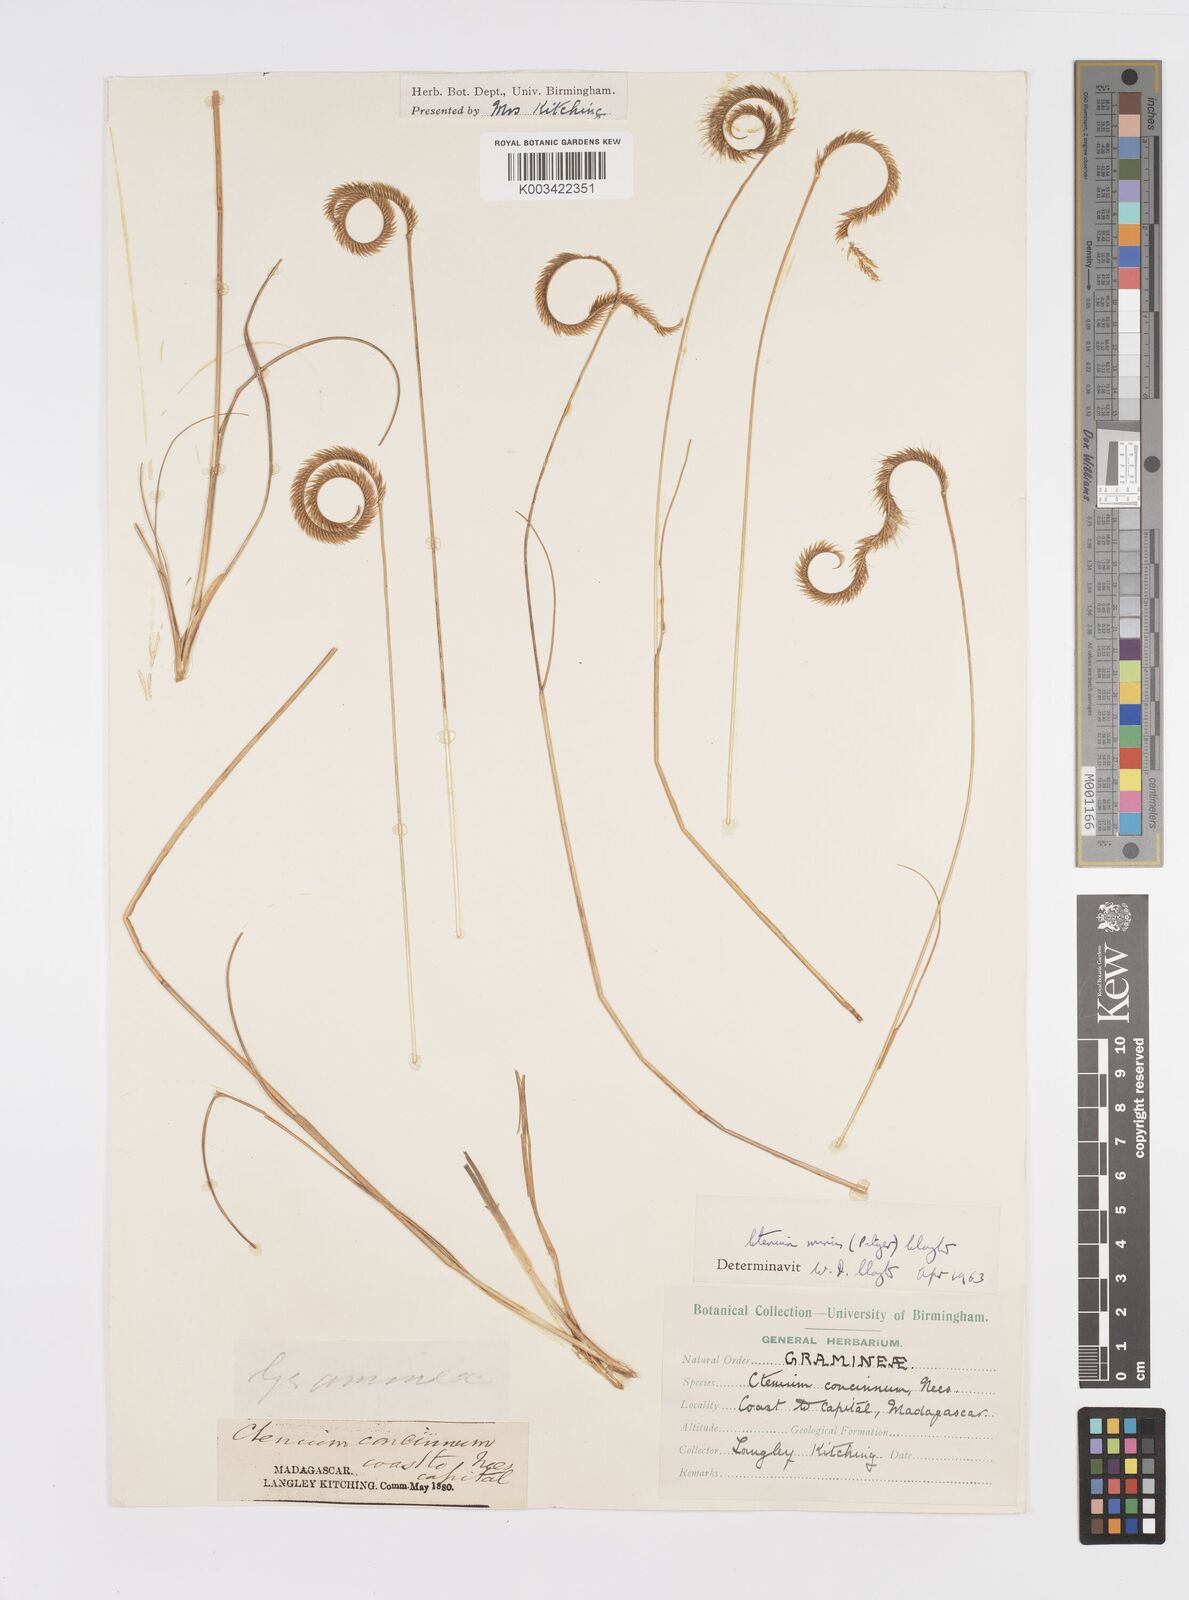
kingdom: Plantae
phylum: Tracheophyta
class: Liliopsida
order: Poales
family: Poaceae
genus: Ctenium
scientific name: Ctenium concinnum
